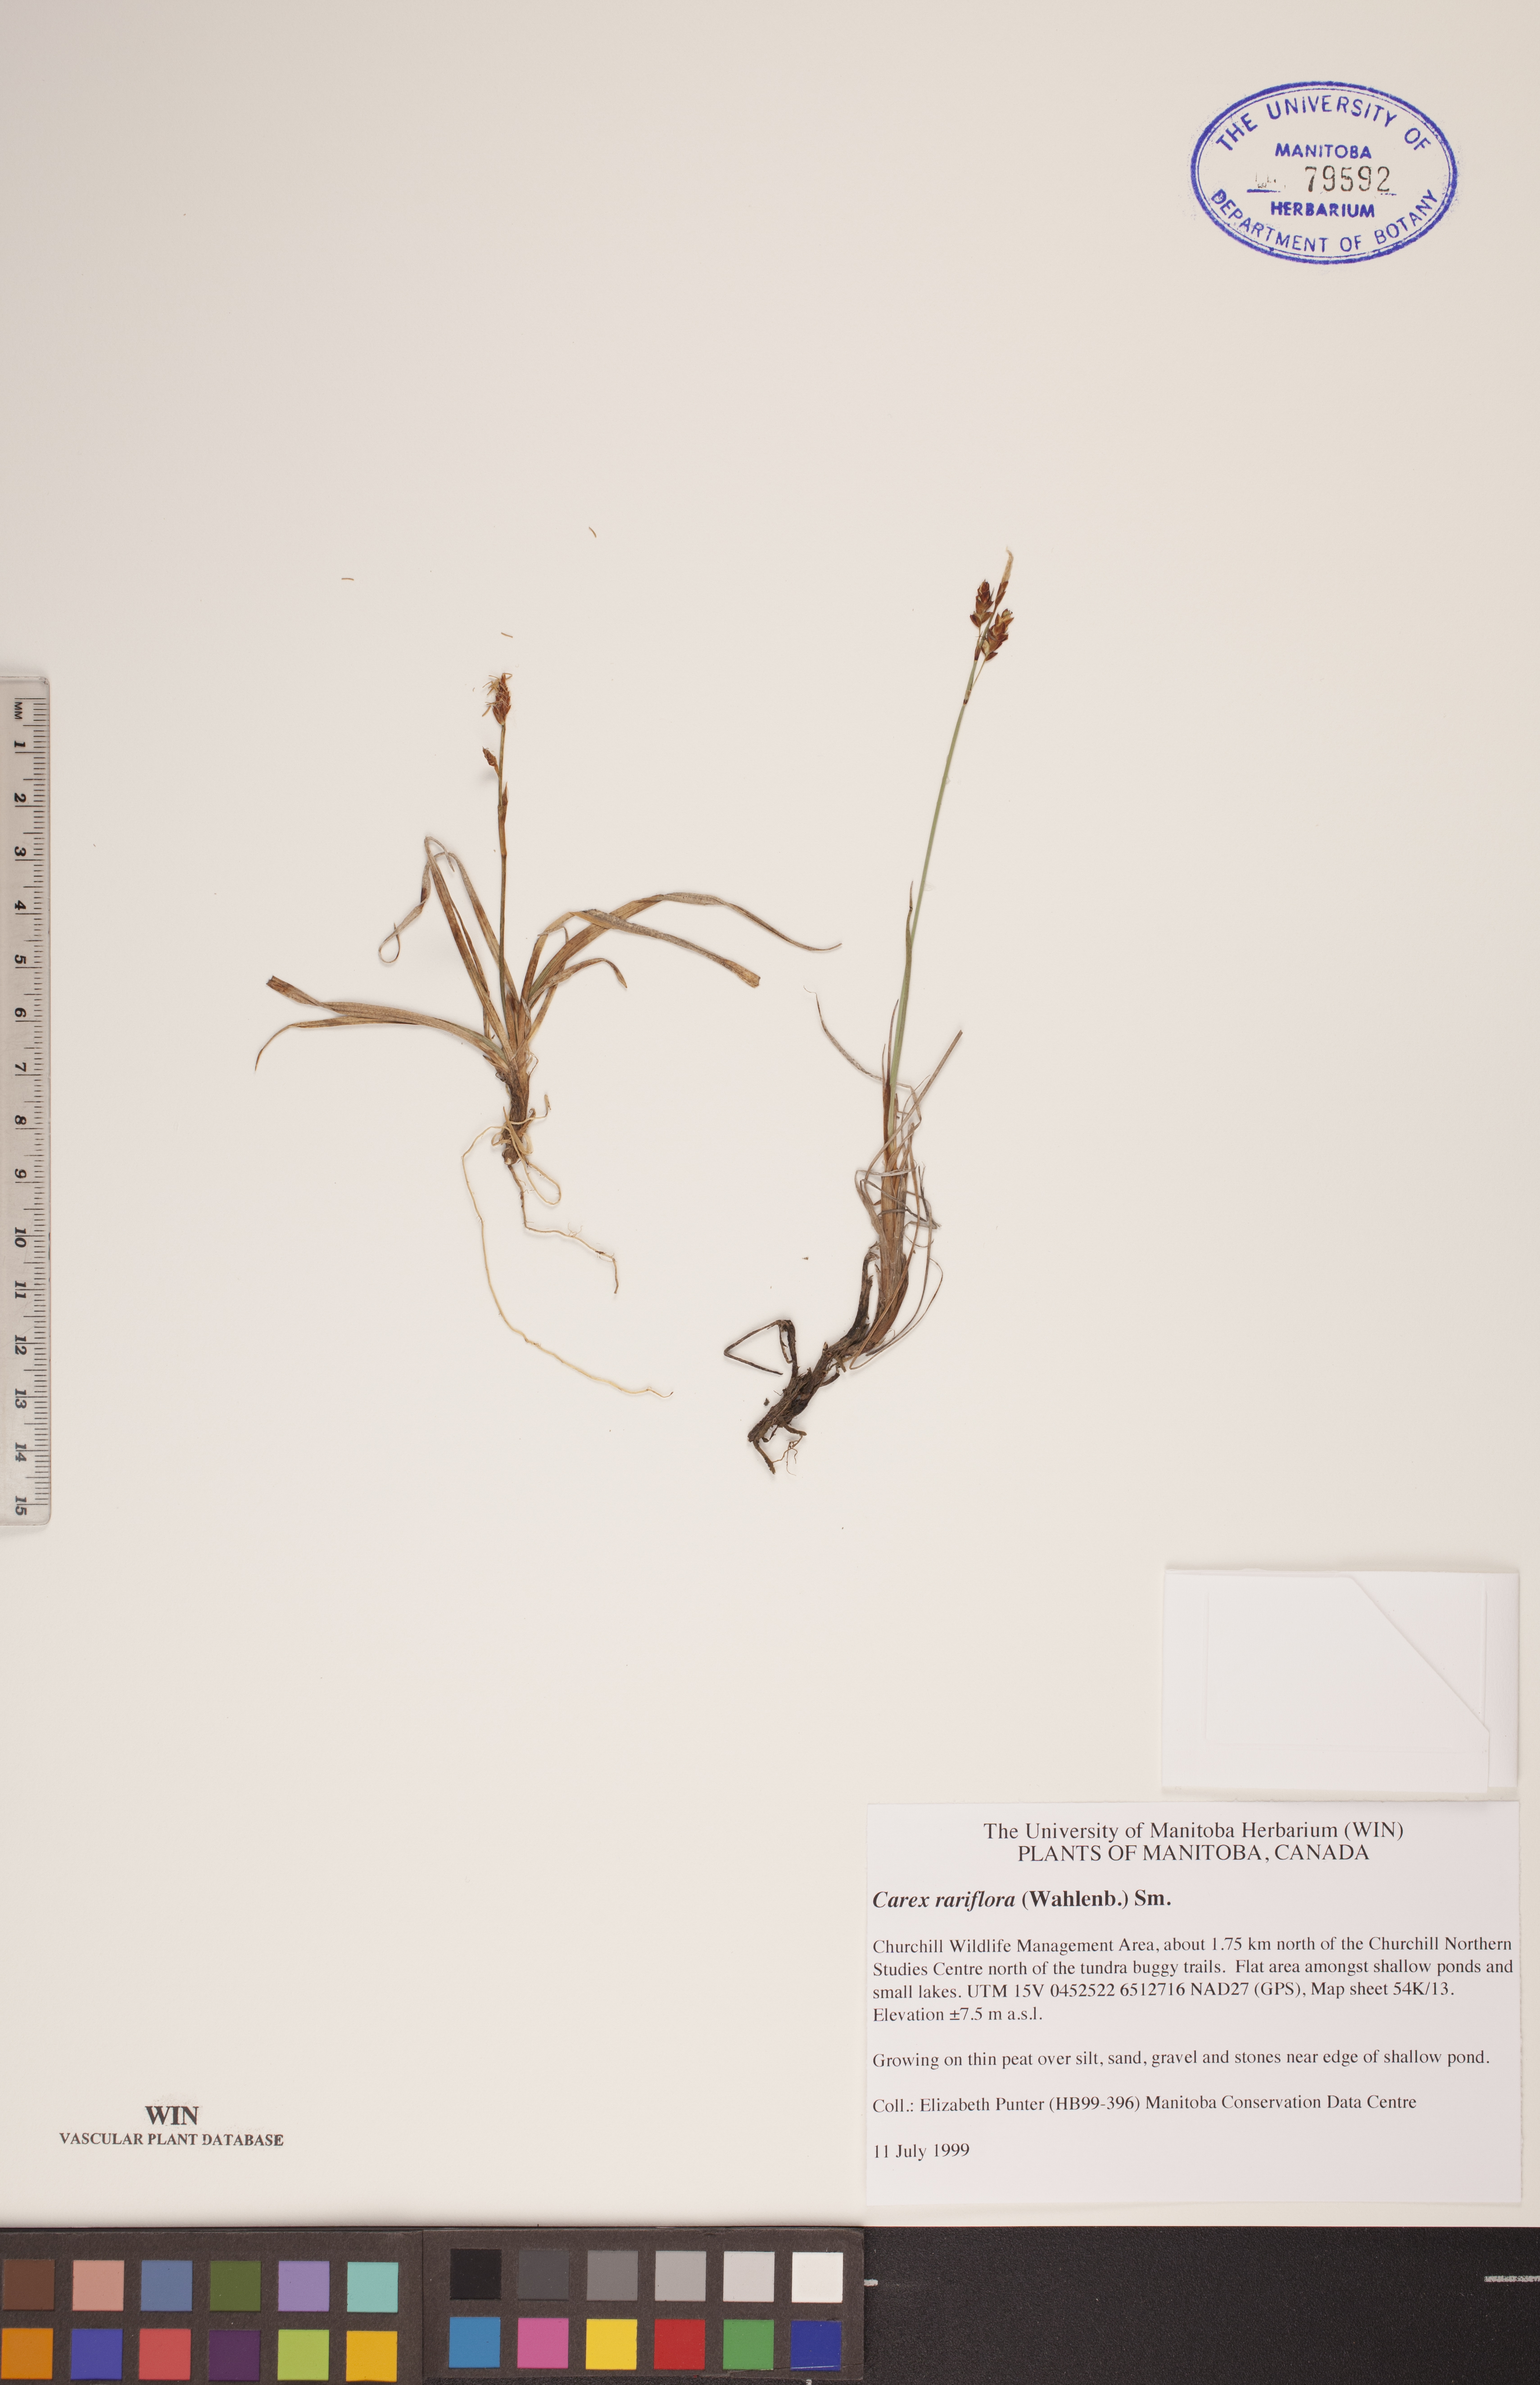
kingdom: Plantae
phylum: Tracheophyta
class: Liliopsida
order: Poales
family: Cyperaceae
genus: Carex
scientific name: Carex rariflora
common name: Loose-flowered alpine sedge
